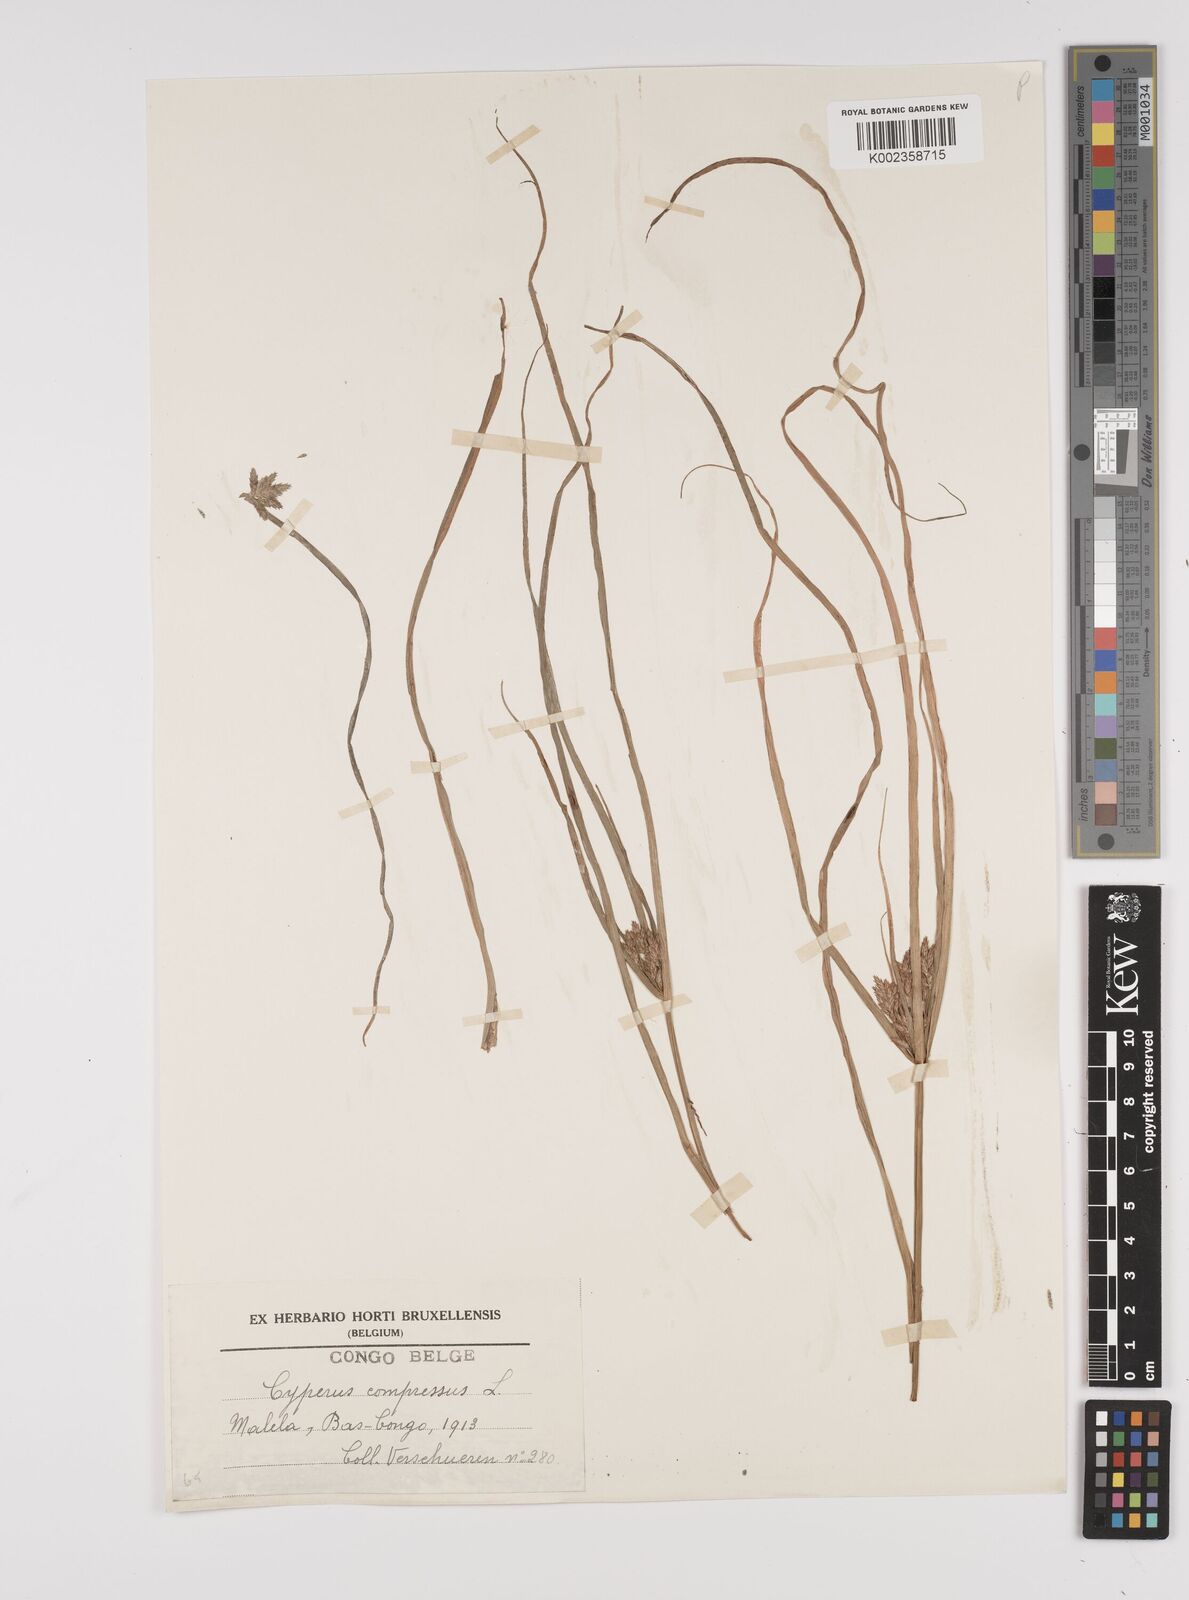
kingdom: Plantae
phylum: Tracheophyta
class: Liliopsida
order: Poales
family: Cyperaceae
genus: Cyperus
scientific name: Cyperus compressus
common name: Poorland flatsedge
